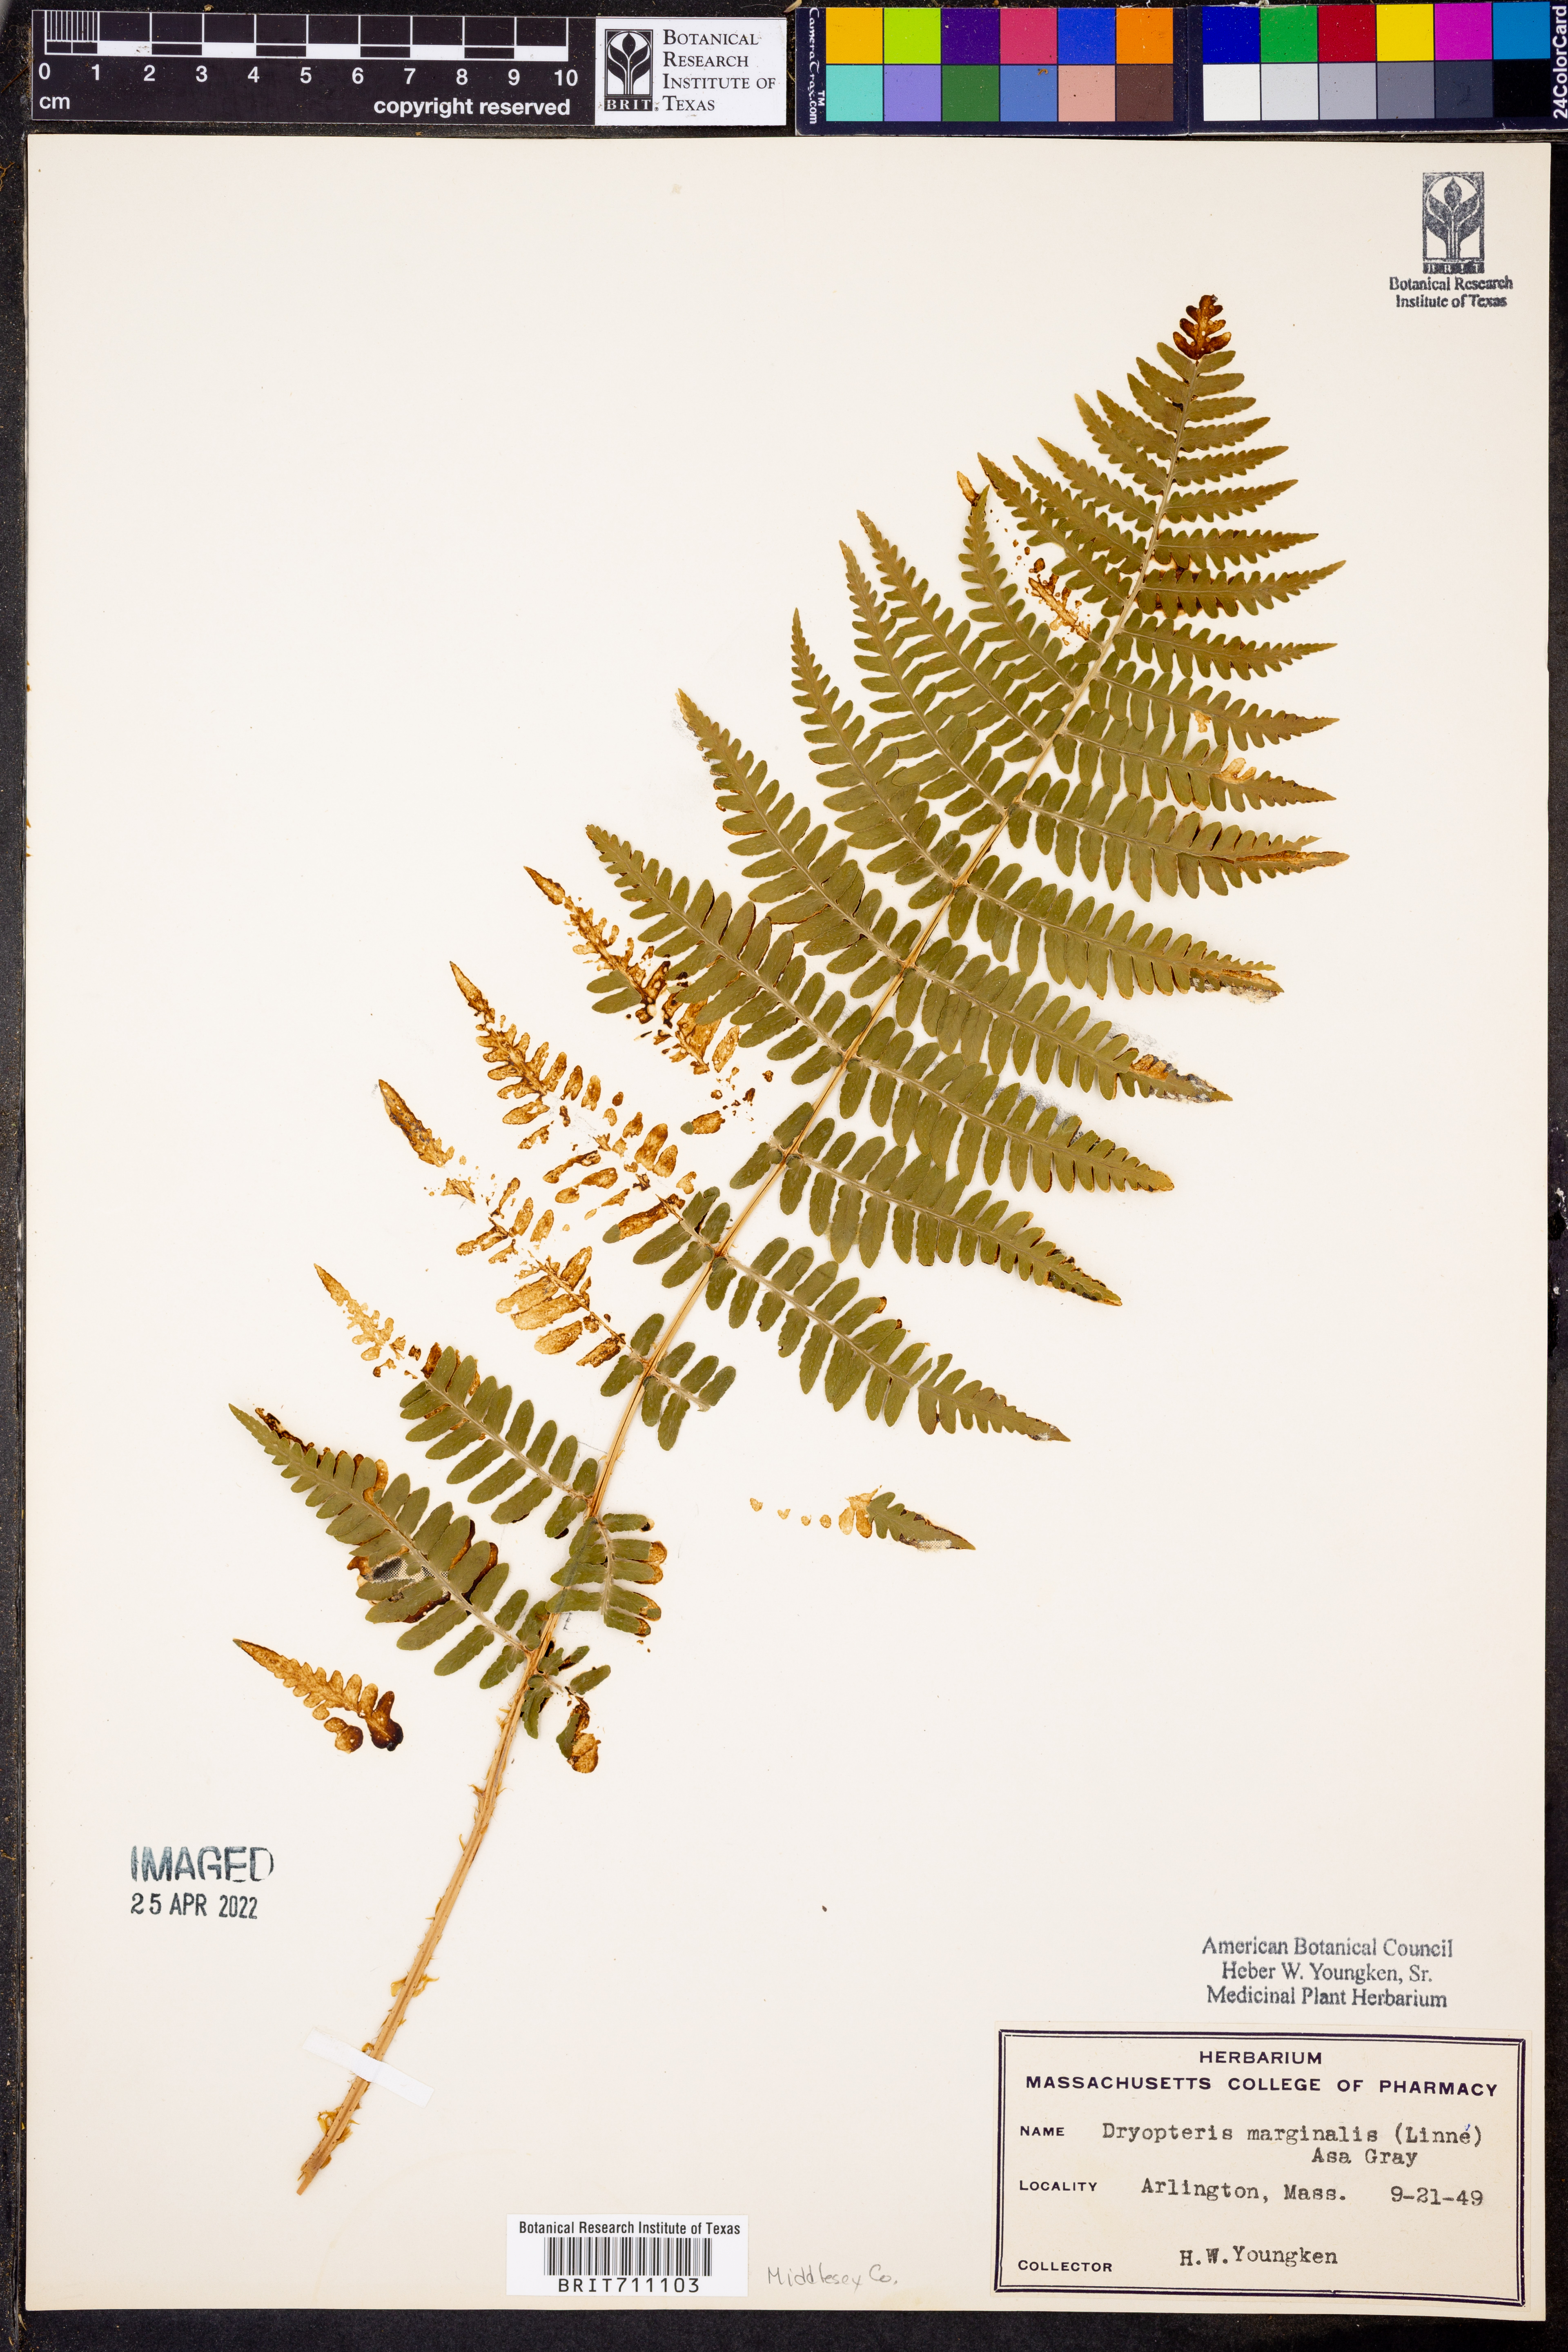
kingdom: Plantae
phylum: Tracheophyta
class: Polypodiopsida
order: Polypodiales
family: Dryopteridaceae
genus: Dryopteris
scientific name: Dryopteris marginalis
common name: Marginal wood fern
